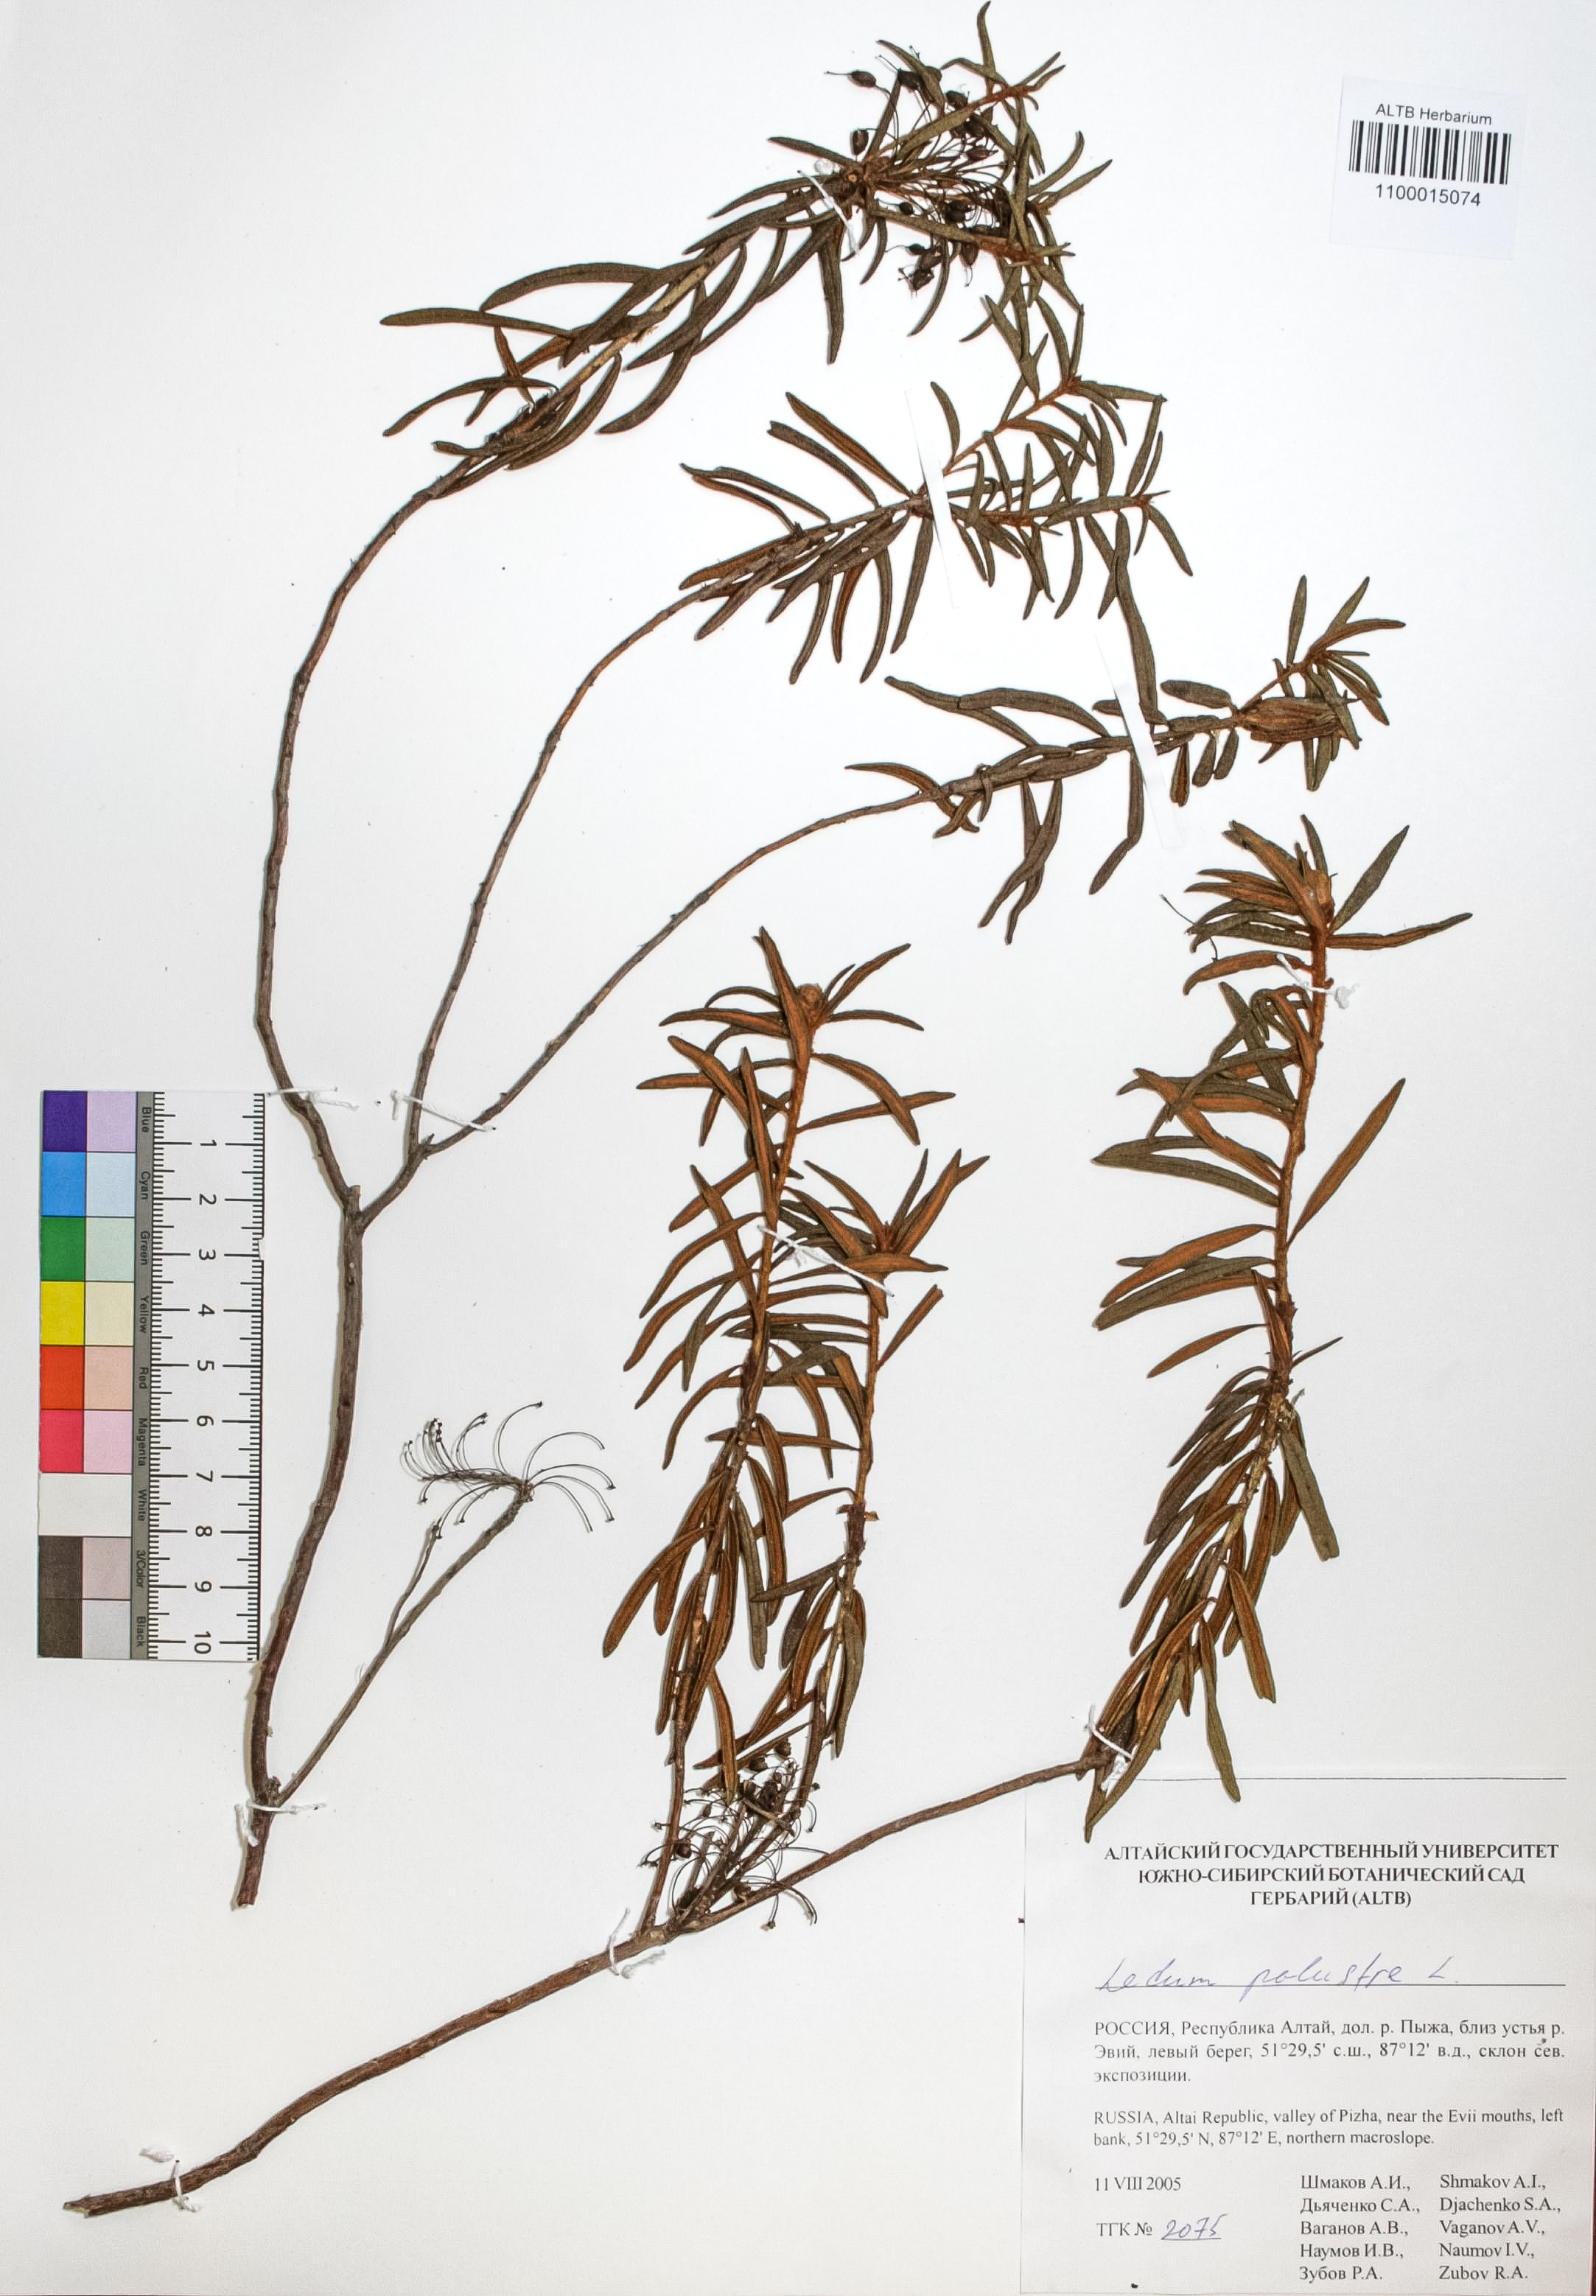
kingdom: Plantae
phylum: Tracheophyta
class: Magnoliopsida
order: Ericales
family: Ericaceae
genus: Rhododendron
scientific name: Rhododendron tomentosum
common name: Marsh labrador tea
